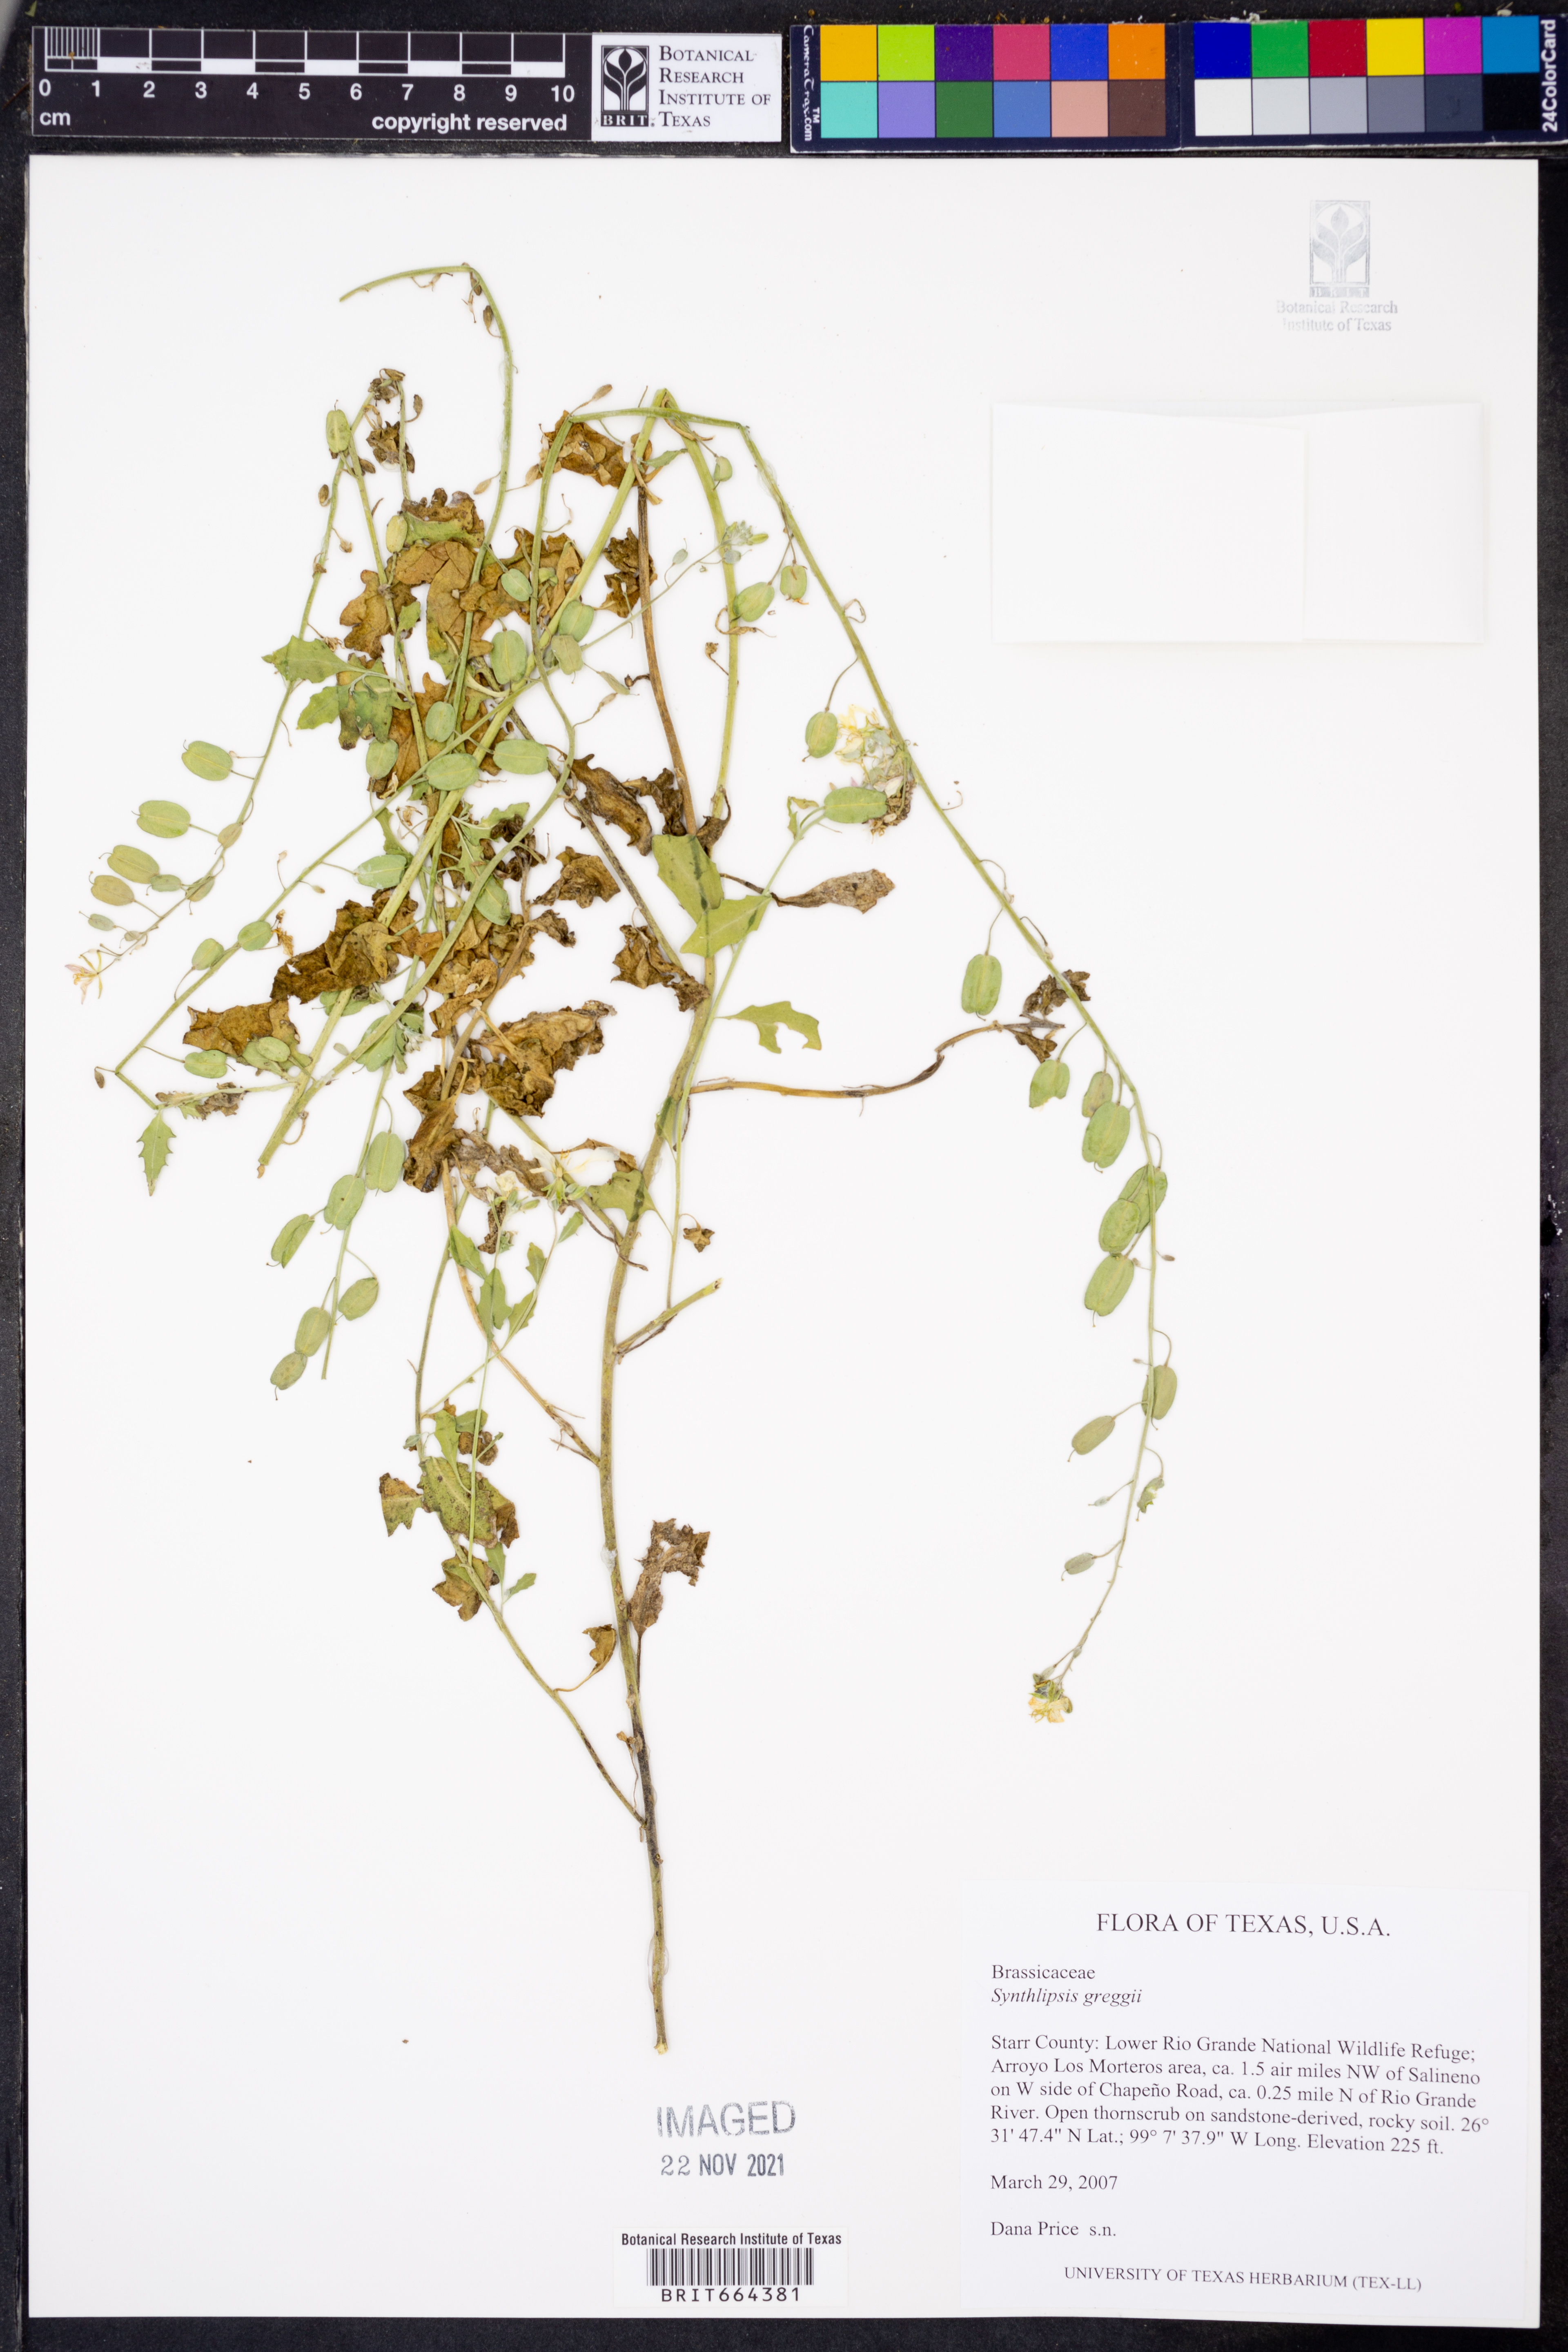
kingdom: Plantae
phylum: Tracheophyta
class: Magnoliopsida
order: Brassicales
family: Brassicaceae
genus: Synthlipsis
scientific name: Synthlipsis greggii
